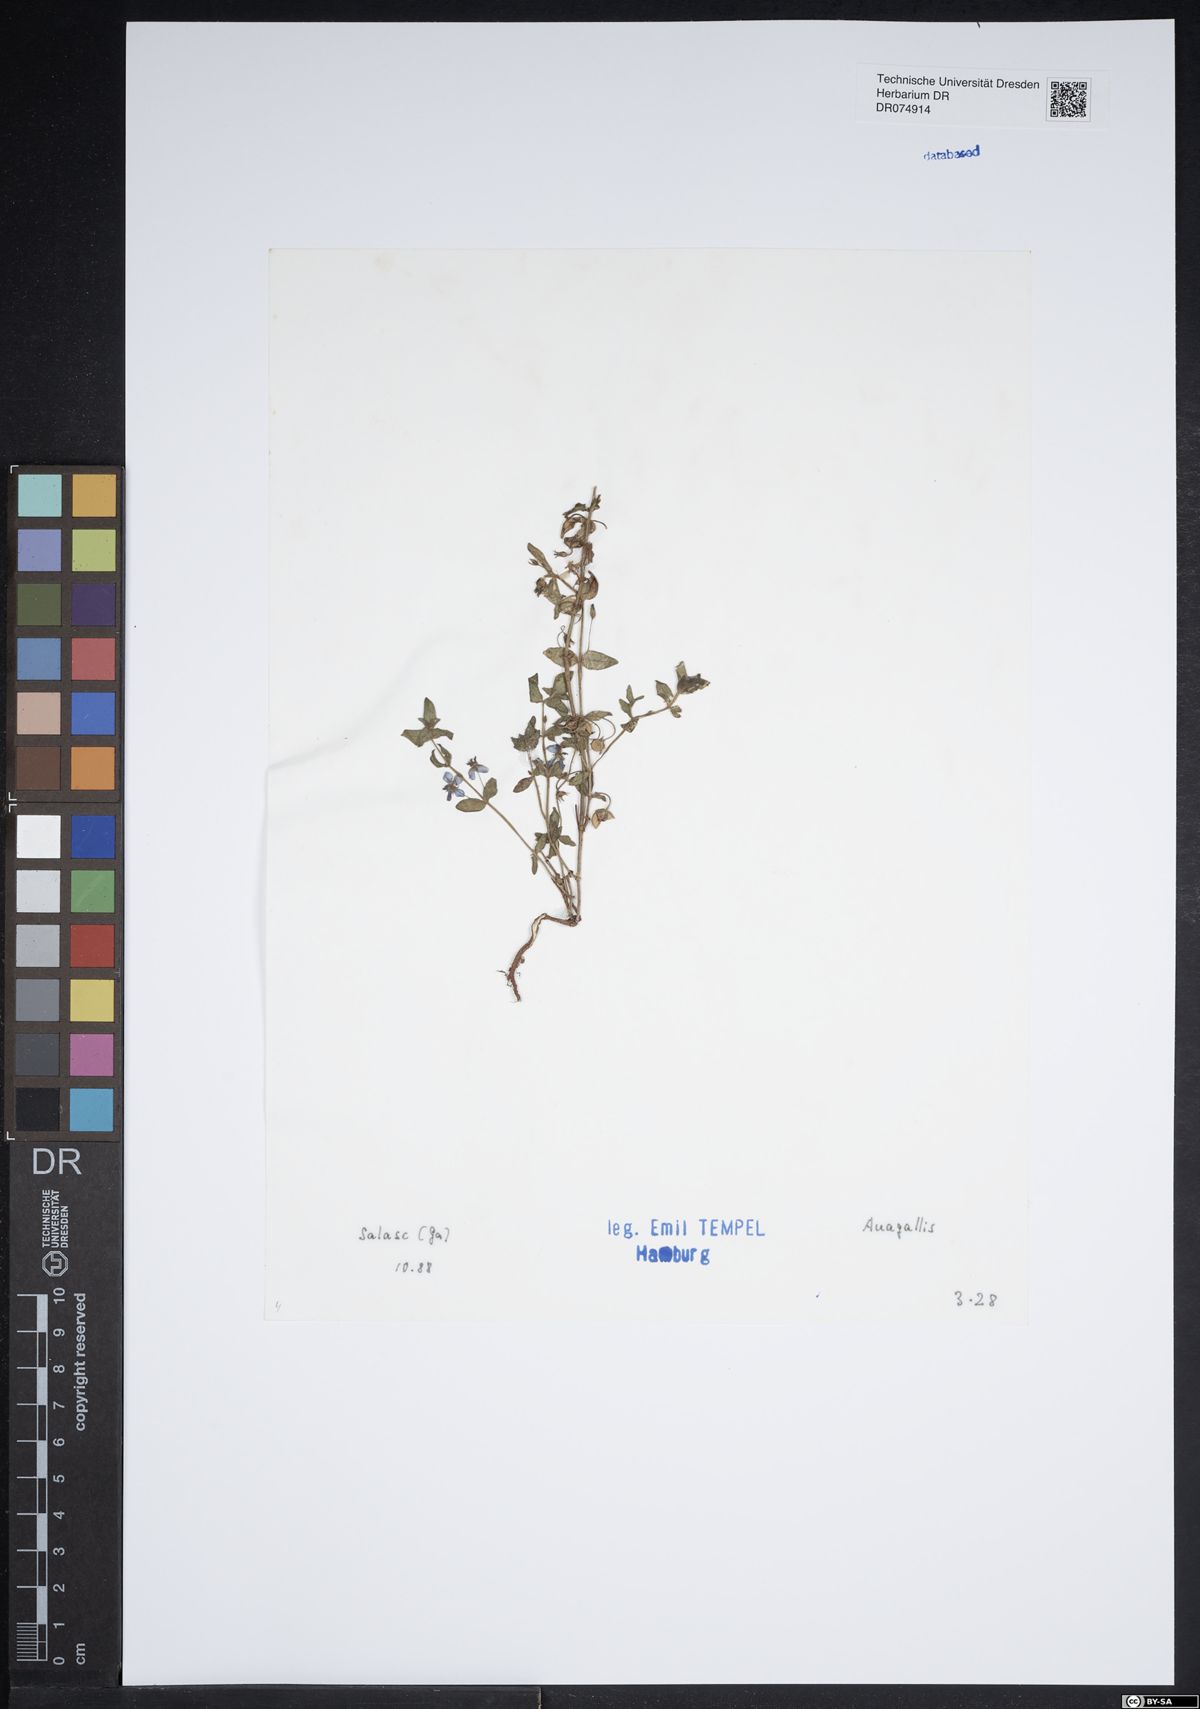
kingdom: Plantae
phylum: Tracheophyta
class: Magnoliopsida
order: Ericales
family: Primulaceae
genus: Lysimachia
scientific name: Lysimachia Anagallis spec
